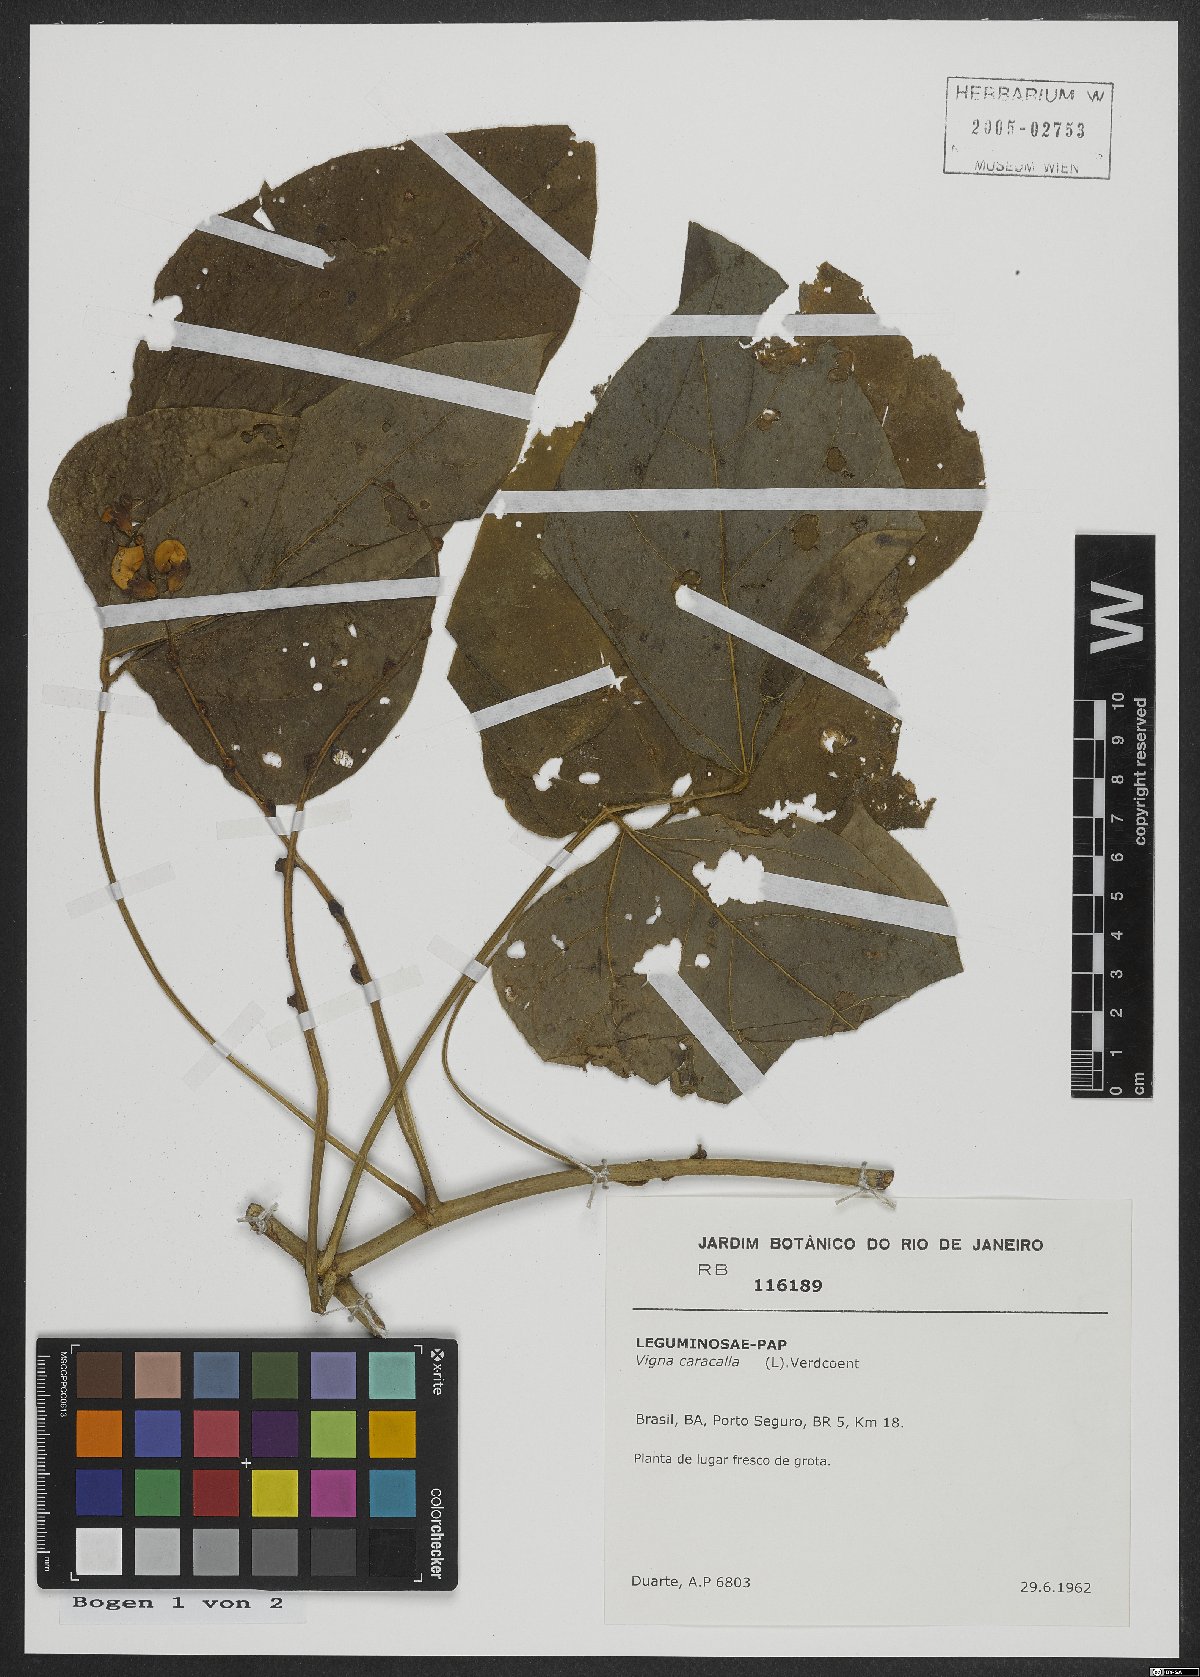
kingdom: Plantae
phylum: Tracheophyta
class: Magnoliopsida
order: Fabales
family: Fabaceae
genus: Cochliasanthus
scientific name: Cochliasanthus caracalla
